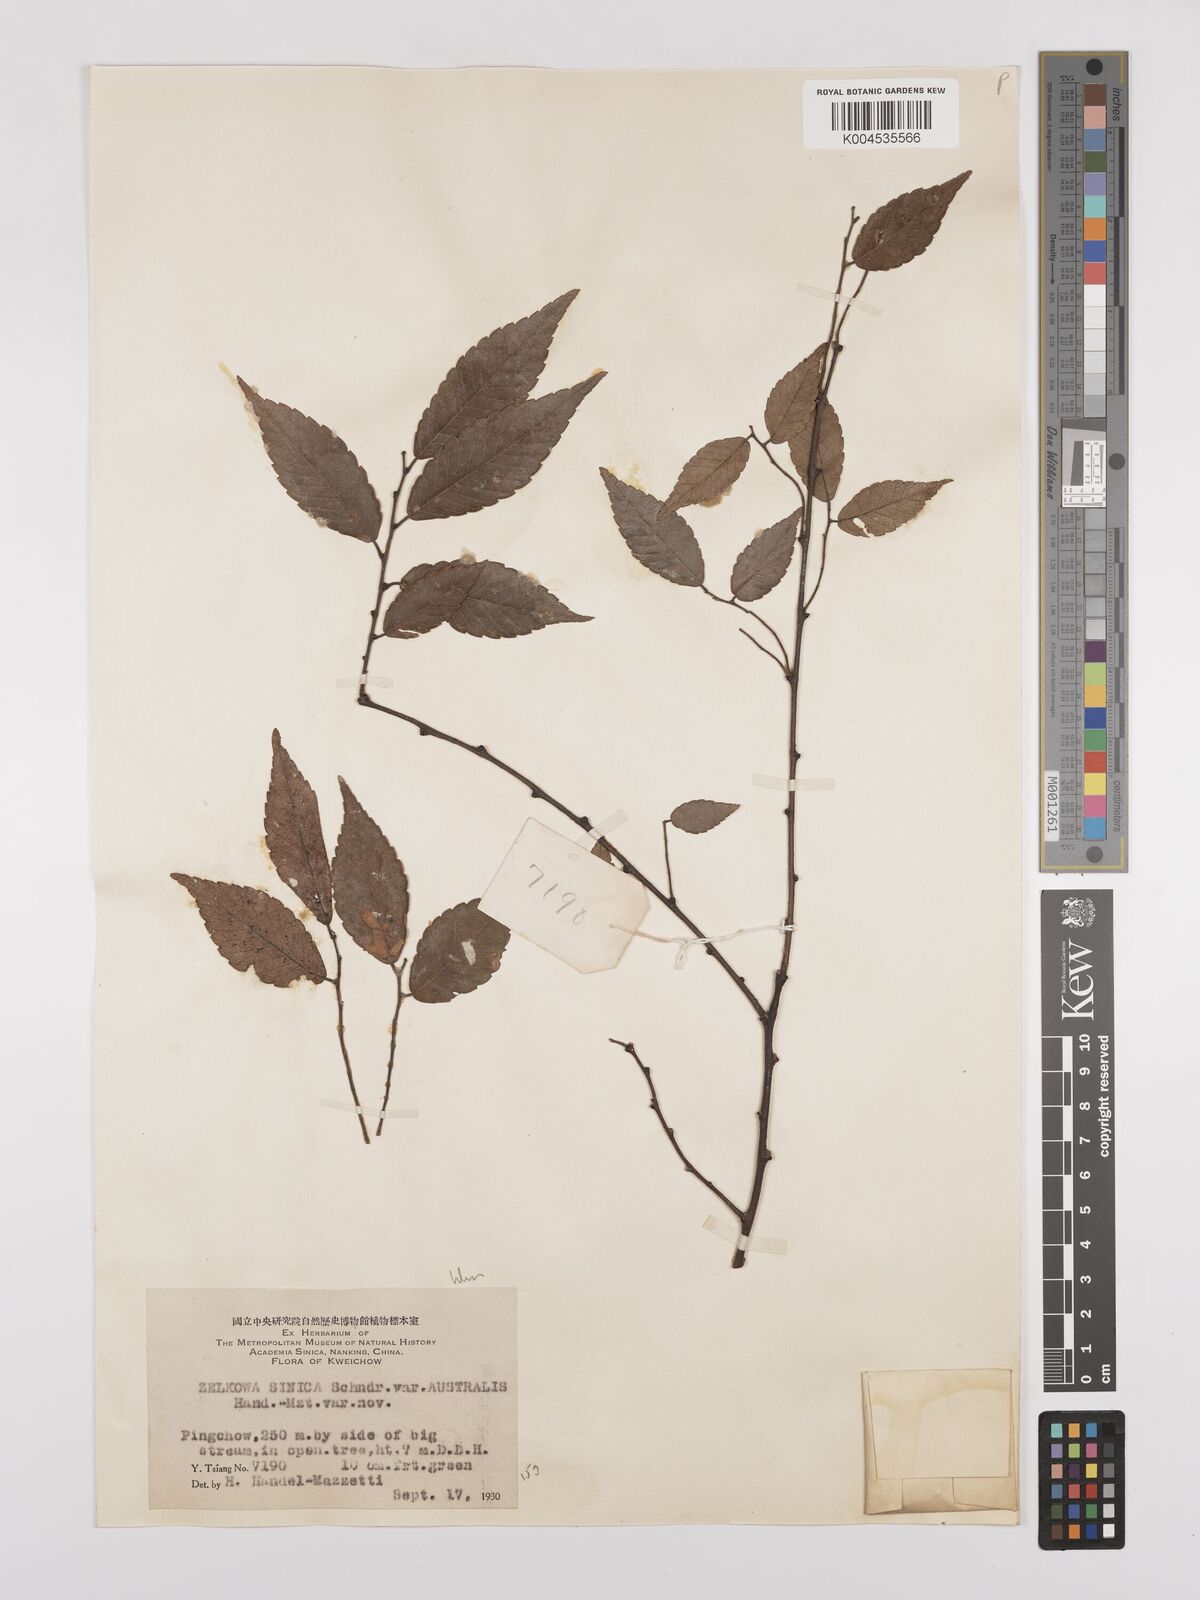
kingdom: Plantae
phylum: Tracheophyta
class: Magnoliopsida
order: Rosales
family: Ulmaceae
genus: Zelkova
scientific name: Zelkova schneideriana
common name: Schneider’s zelkova
